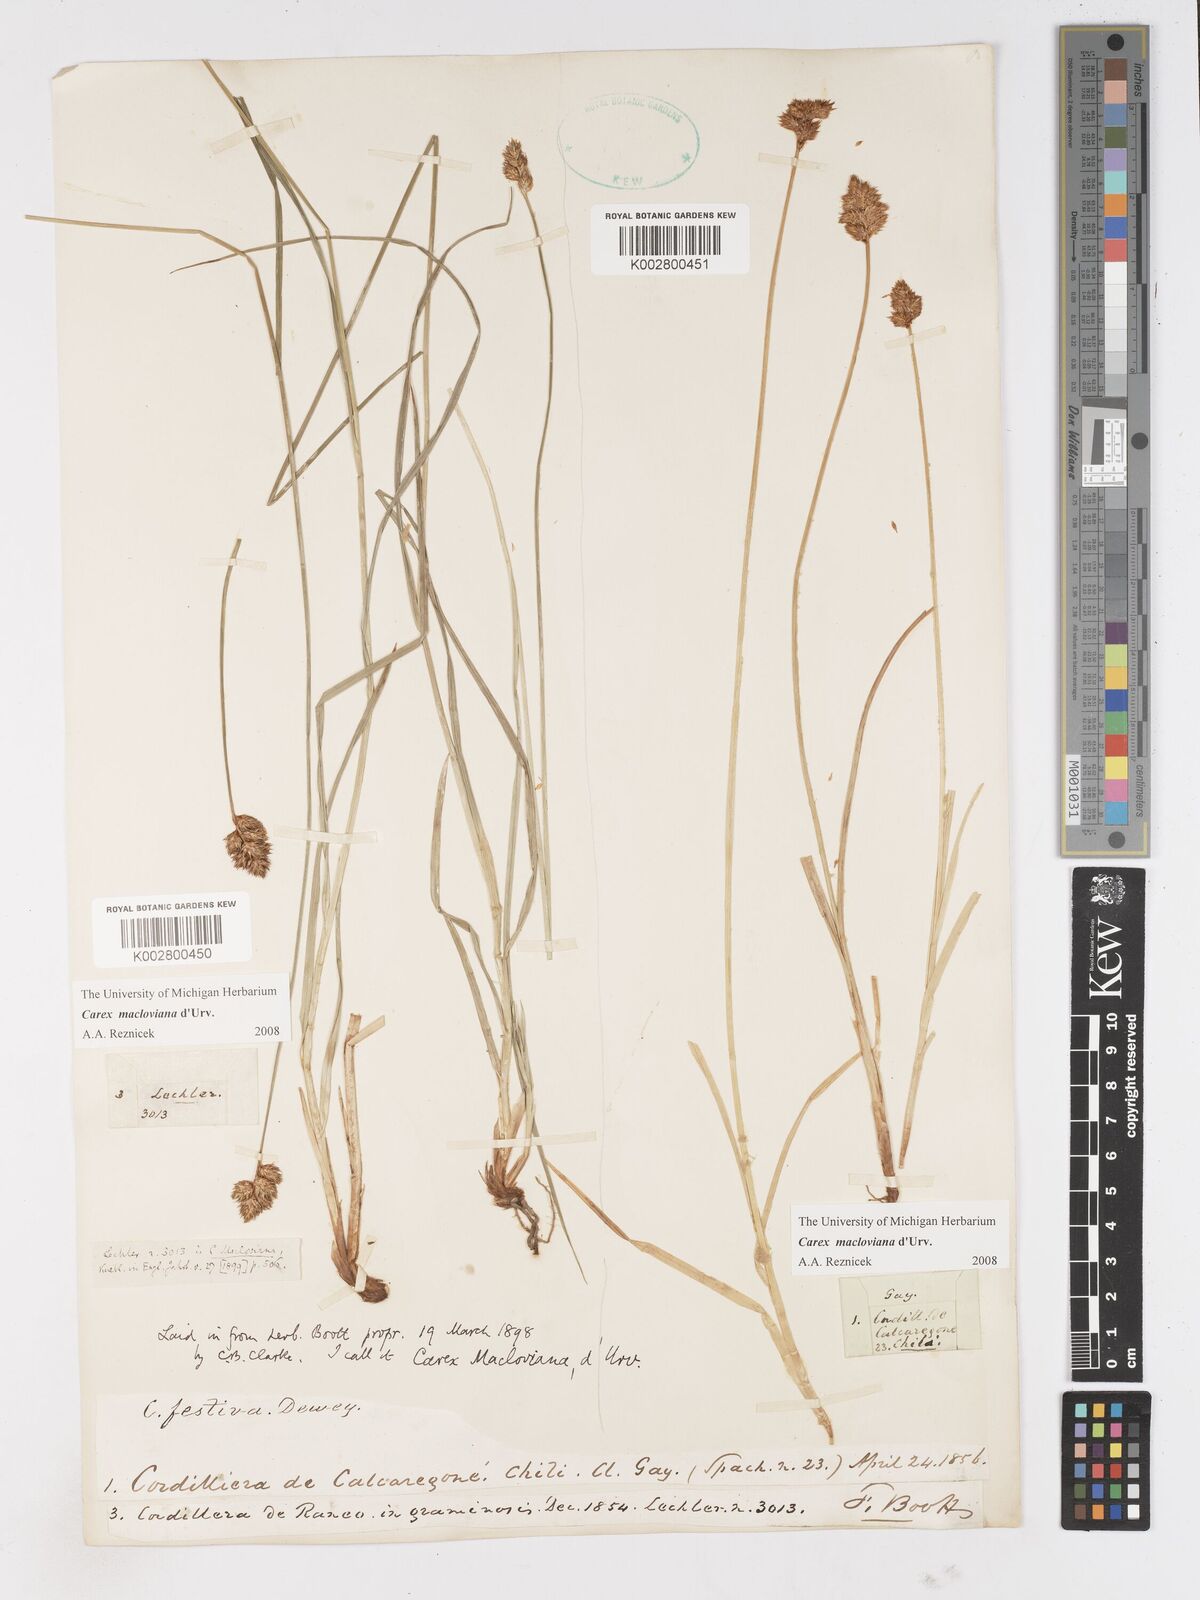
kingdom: Plantae
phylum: Tracheophyta
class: Liliopsida
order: Poales
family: Cyperaceae
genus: Carex
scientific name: Carex macloviana
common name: Falkland island sedge
